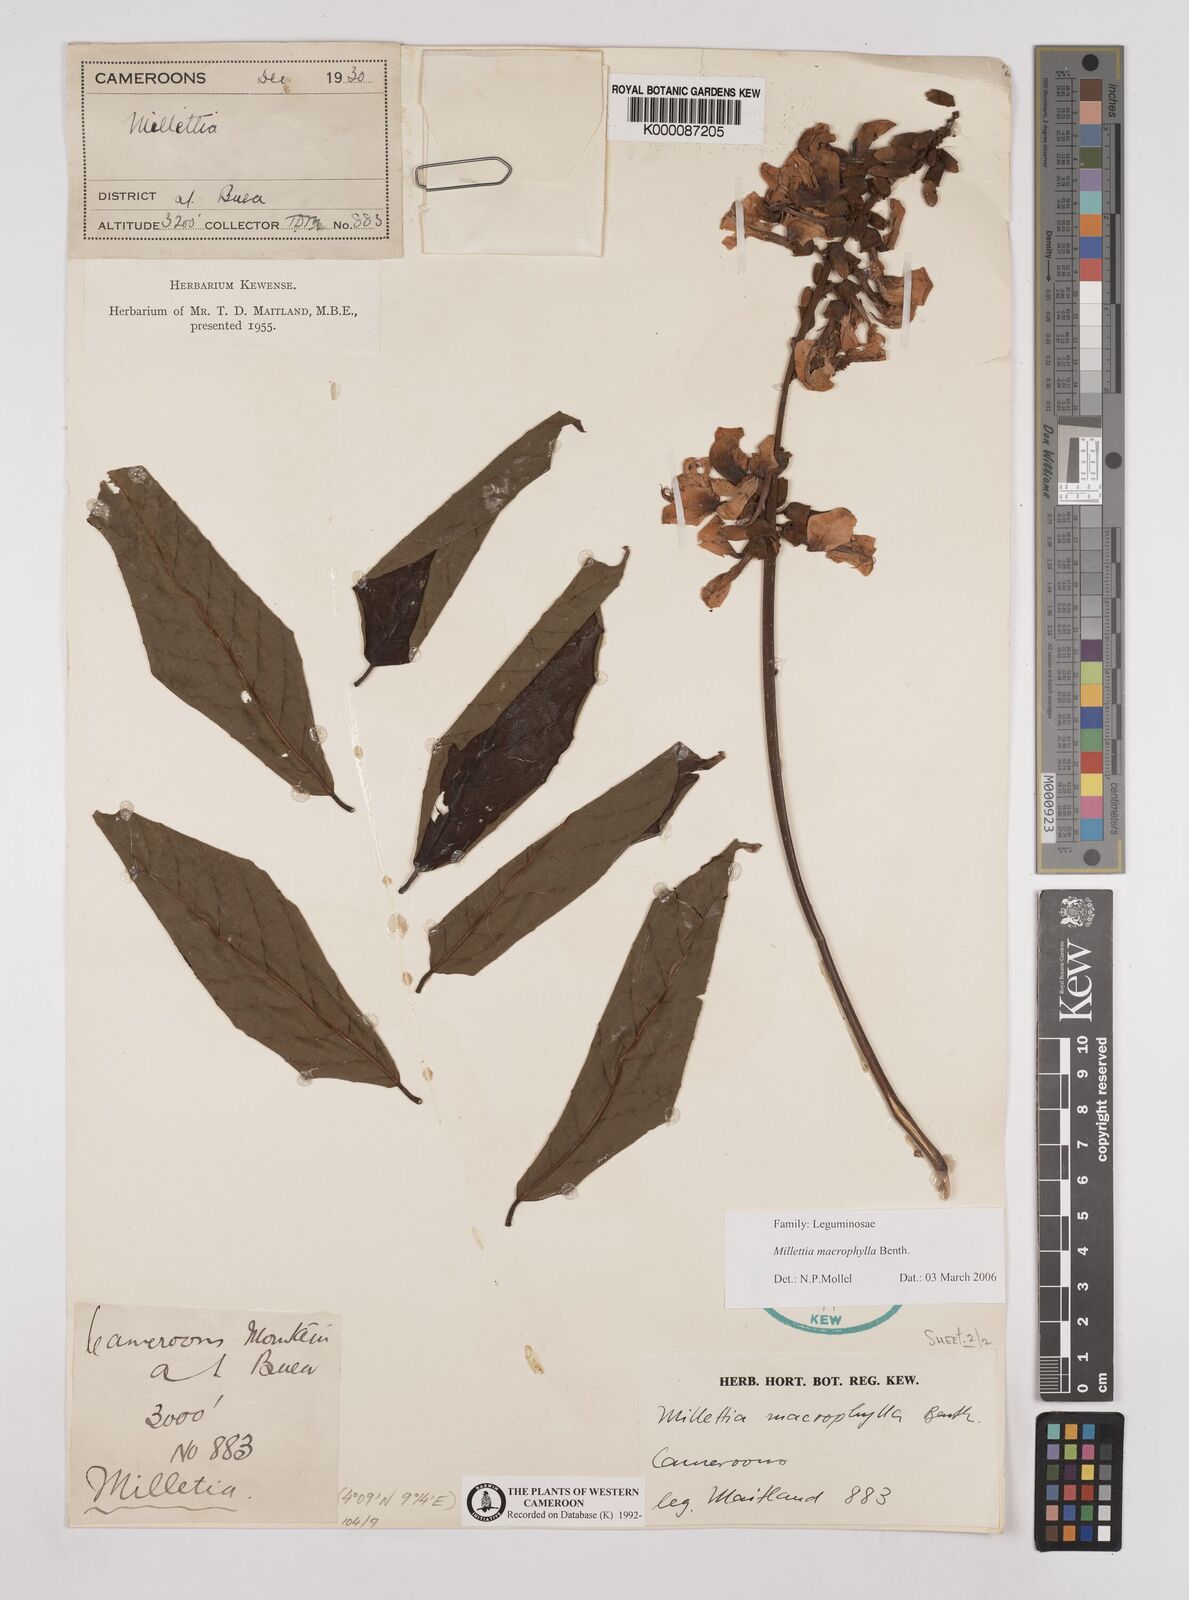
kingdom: Plantae
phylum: Tracheophyta
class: Magnoliopsida
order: Fabales
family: Fabaceae
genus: Millettia
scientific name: Millettia macrophylla
